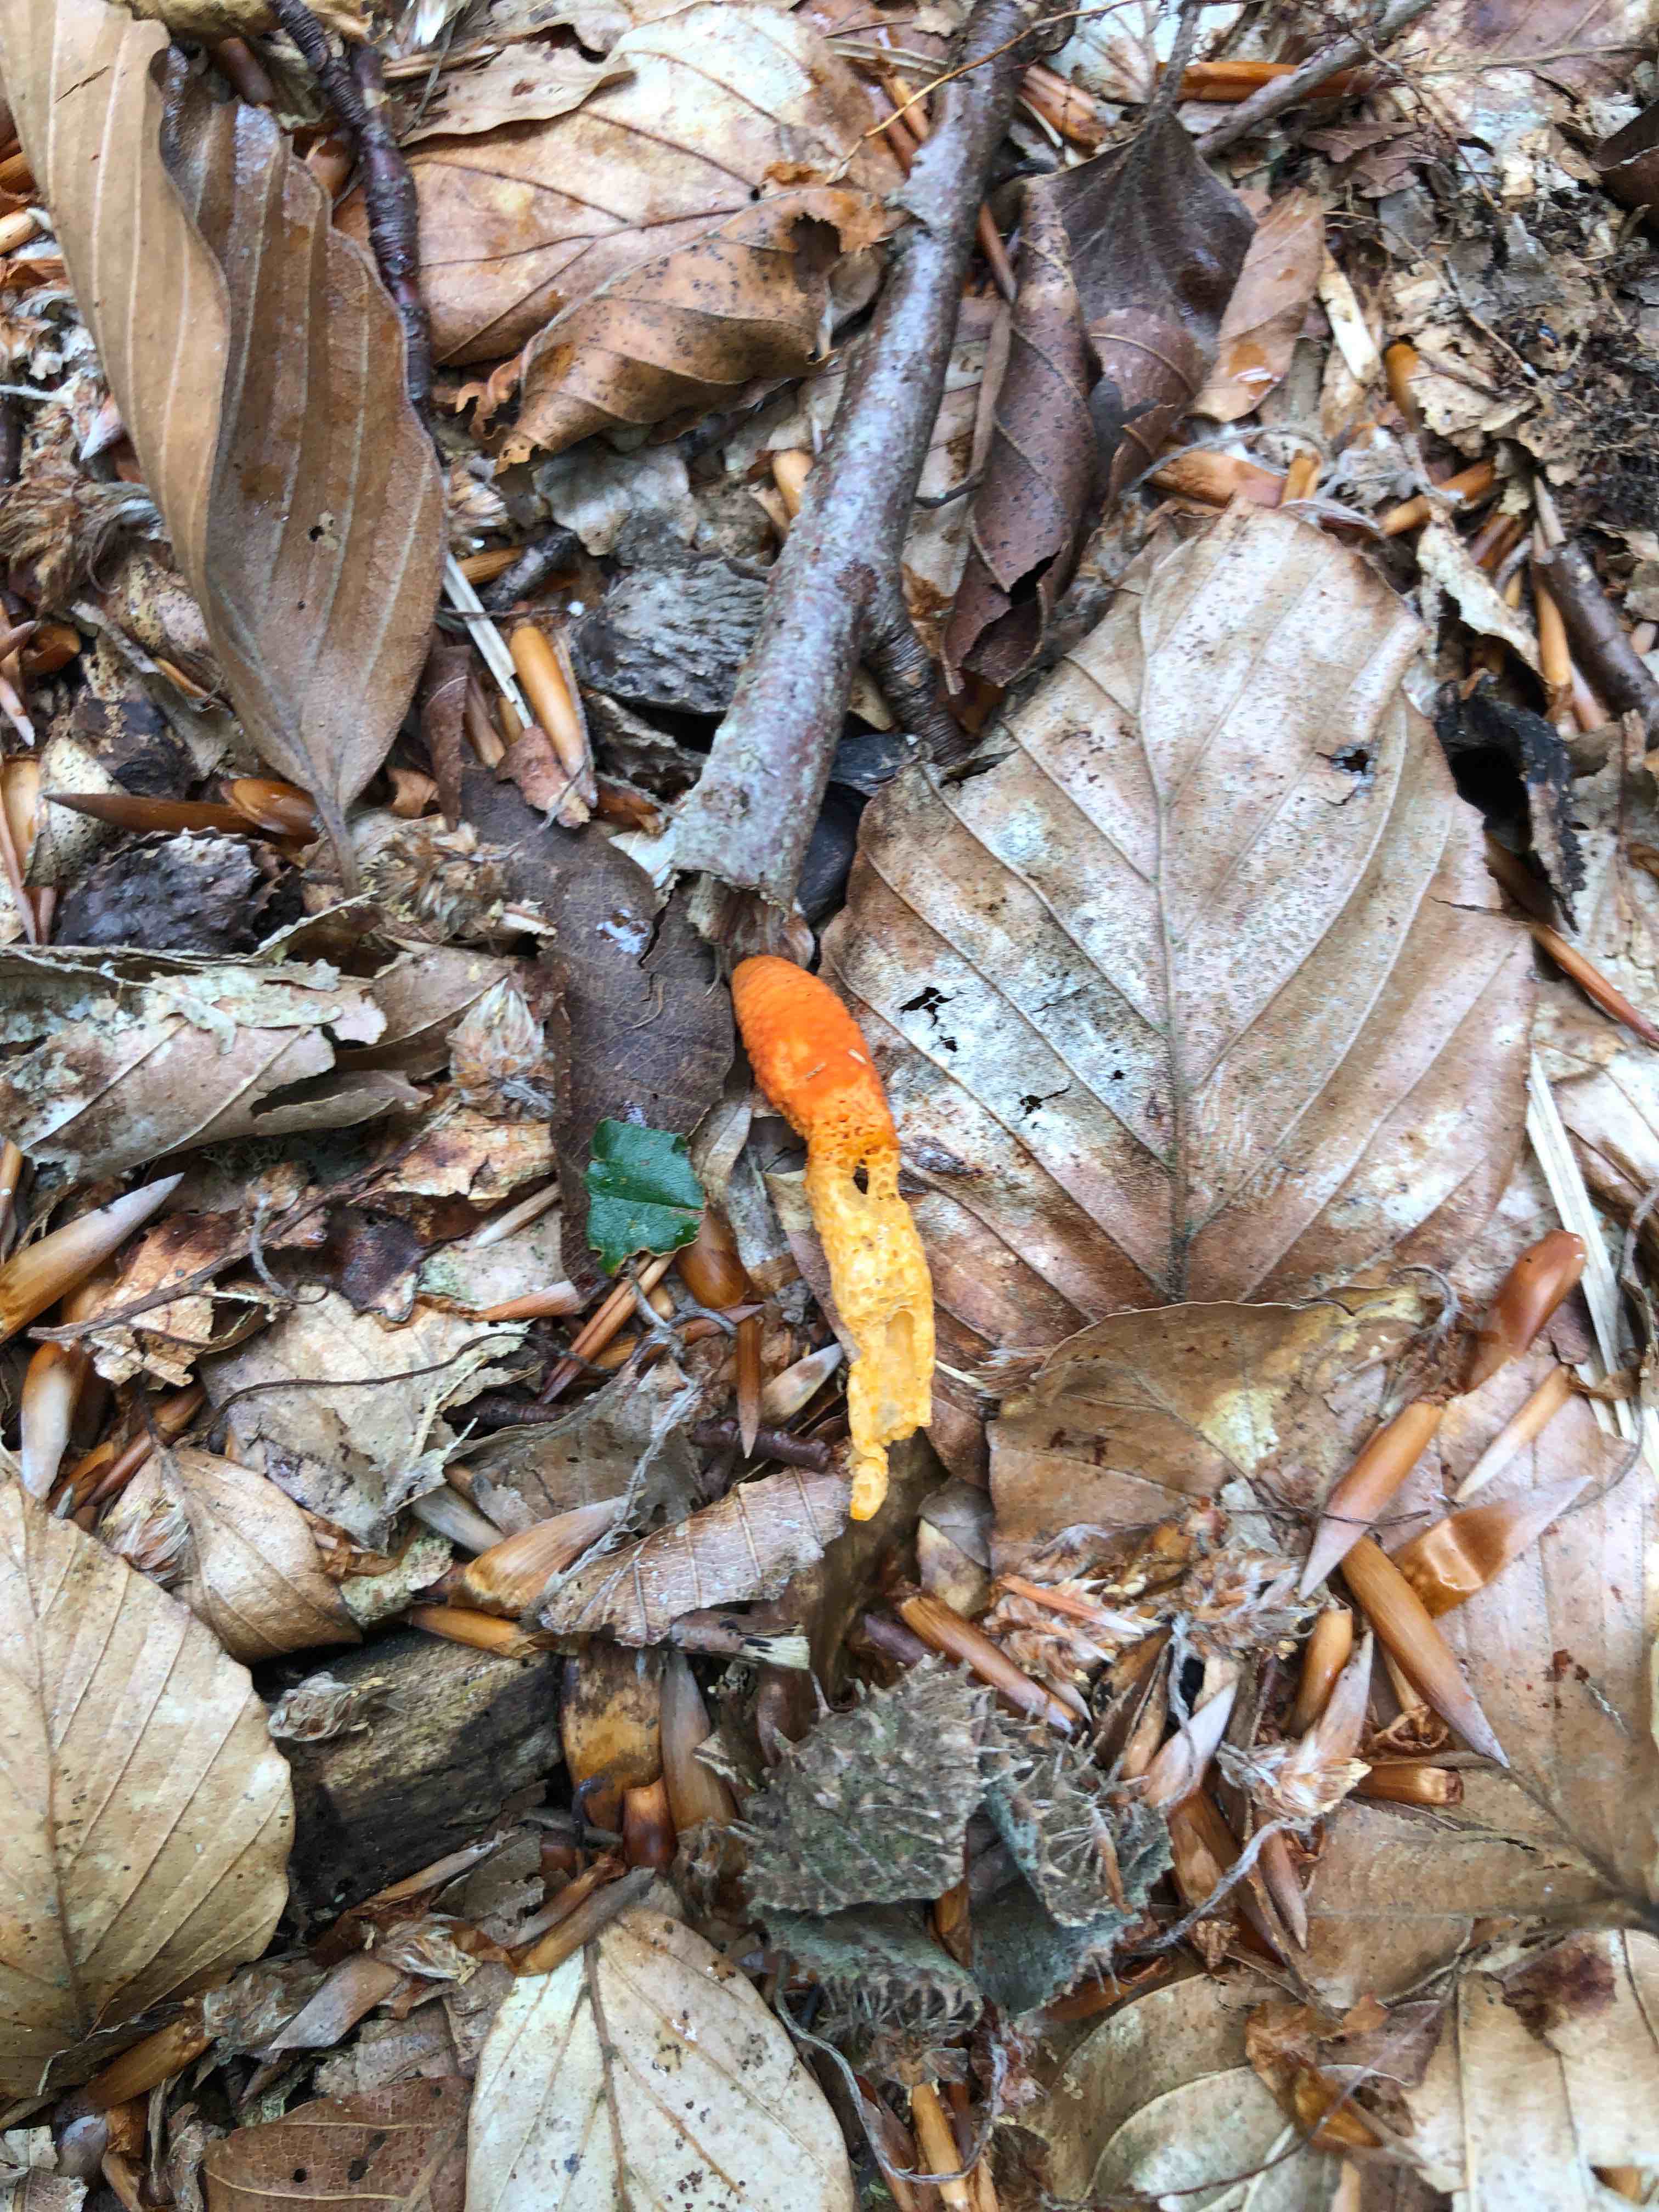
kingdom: Fungi
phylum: Basidiomycota
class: Agaricomycetes
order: Phallales
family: Phallaceae
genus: Mutinus
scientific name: Mutinus caninus
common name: hunde-stinksvamp
